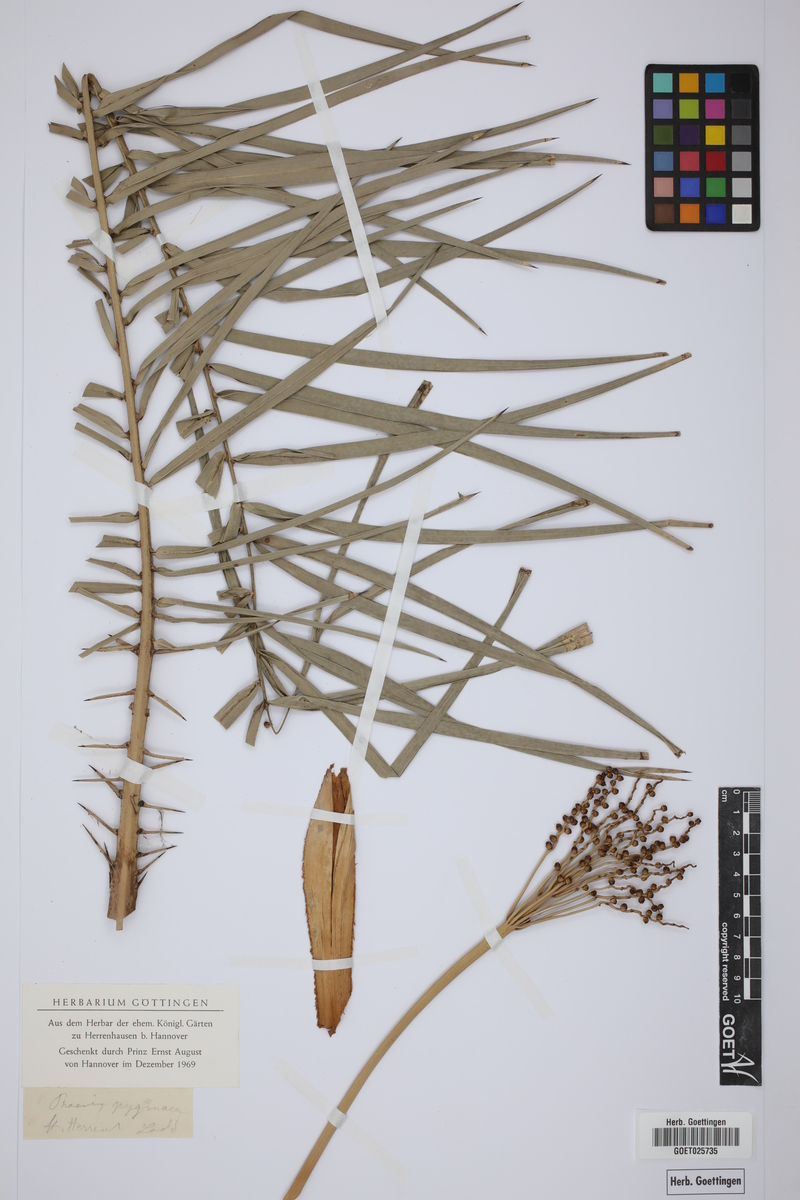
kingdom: Plantae
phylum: Tracheophyta
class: Liliopsida
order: Arecales
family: Arecaceae
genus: Phoenix
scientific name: Phoenix loureiroi
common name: Loureiro's palm
